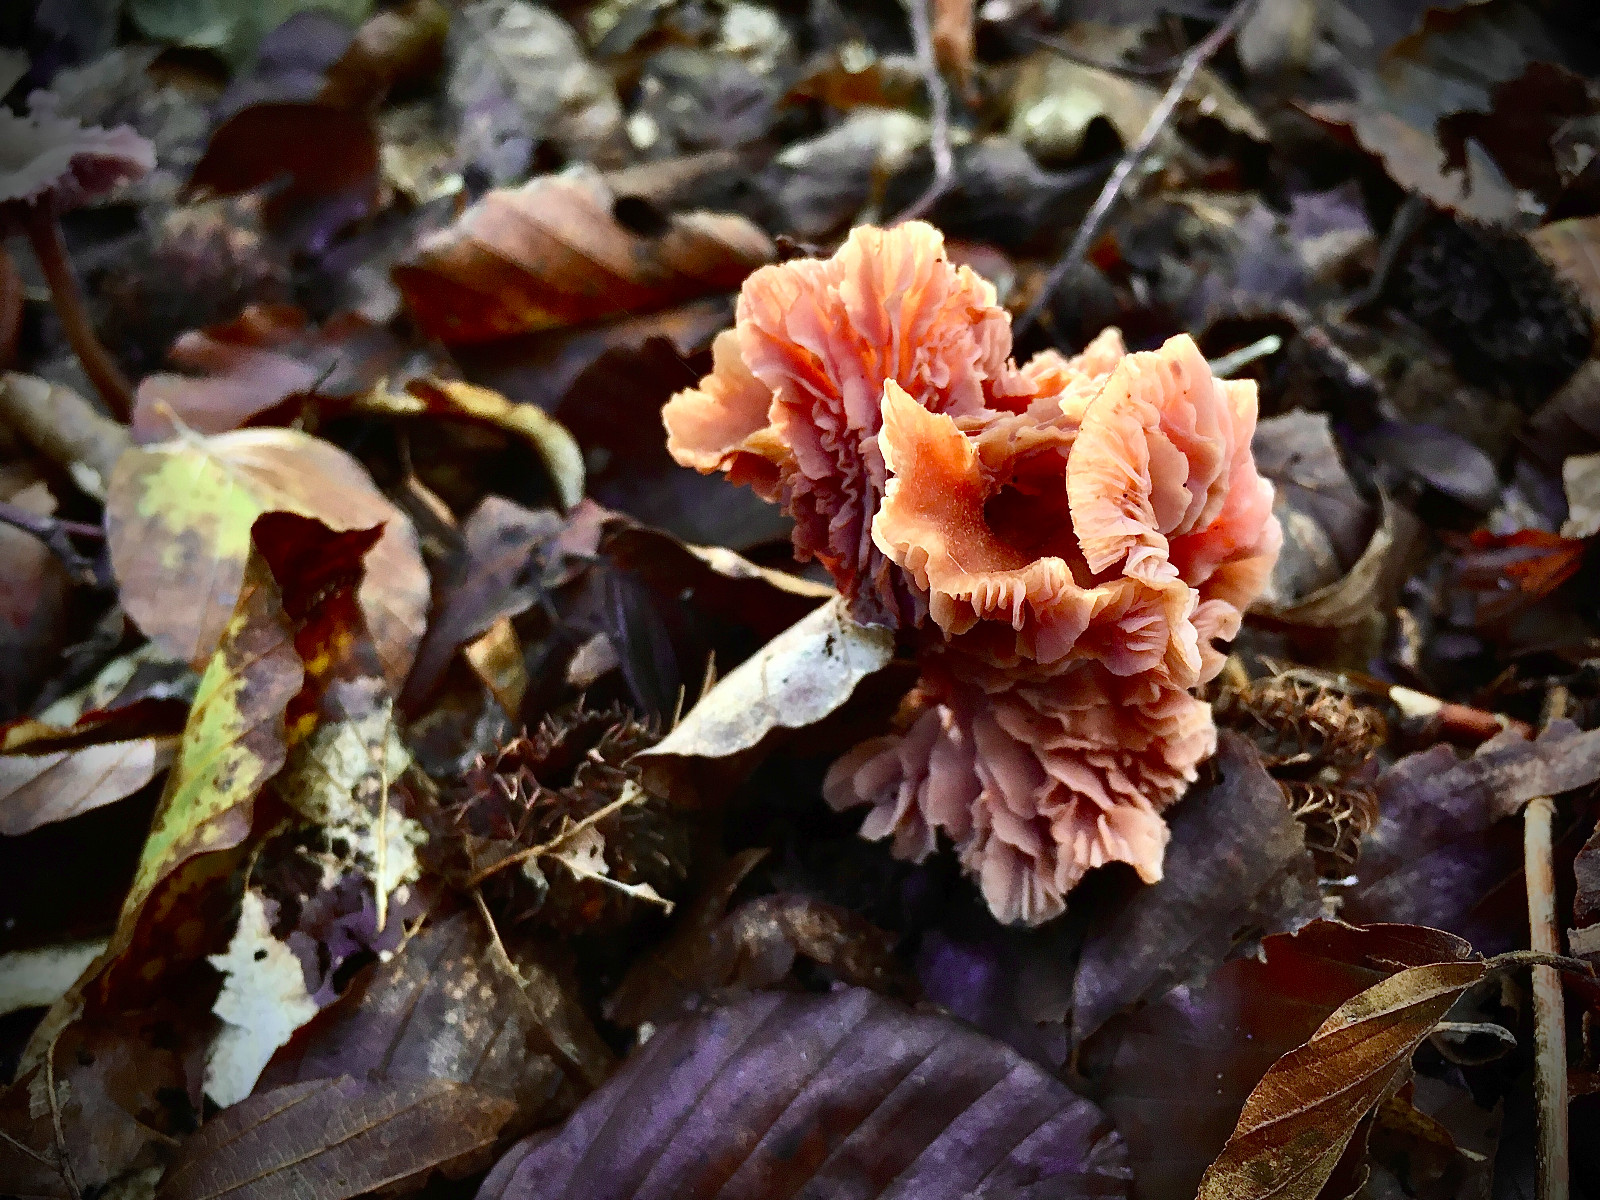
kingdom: Fungi
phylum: Basidiomycota
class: Agaricomycetes
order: Agaricales
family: Hydnangiaceae
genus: Laccaria
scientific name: Laccaria laccata
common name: rød ametysthat
